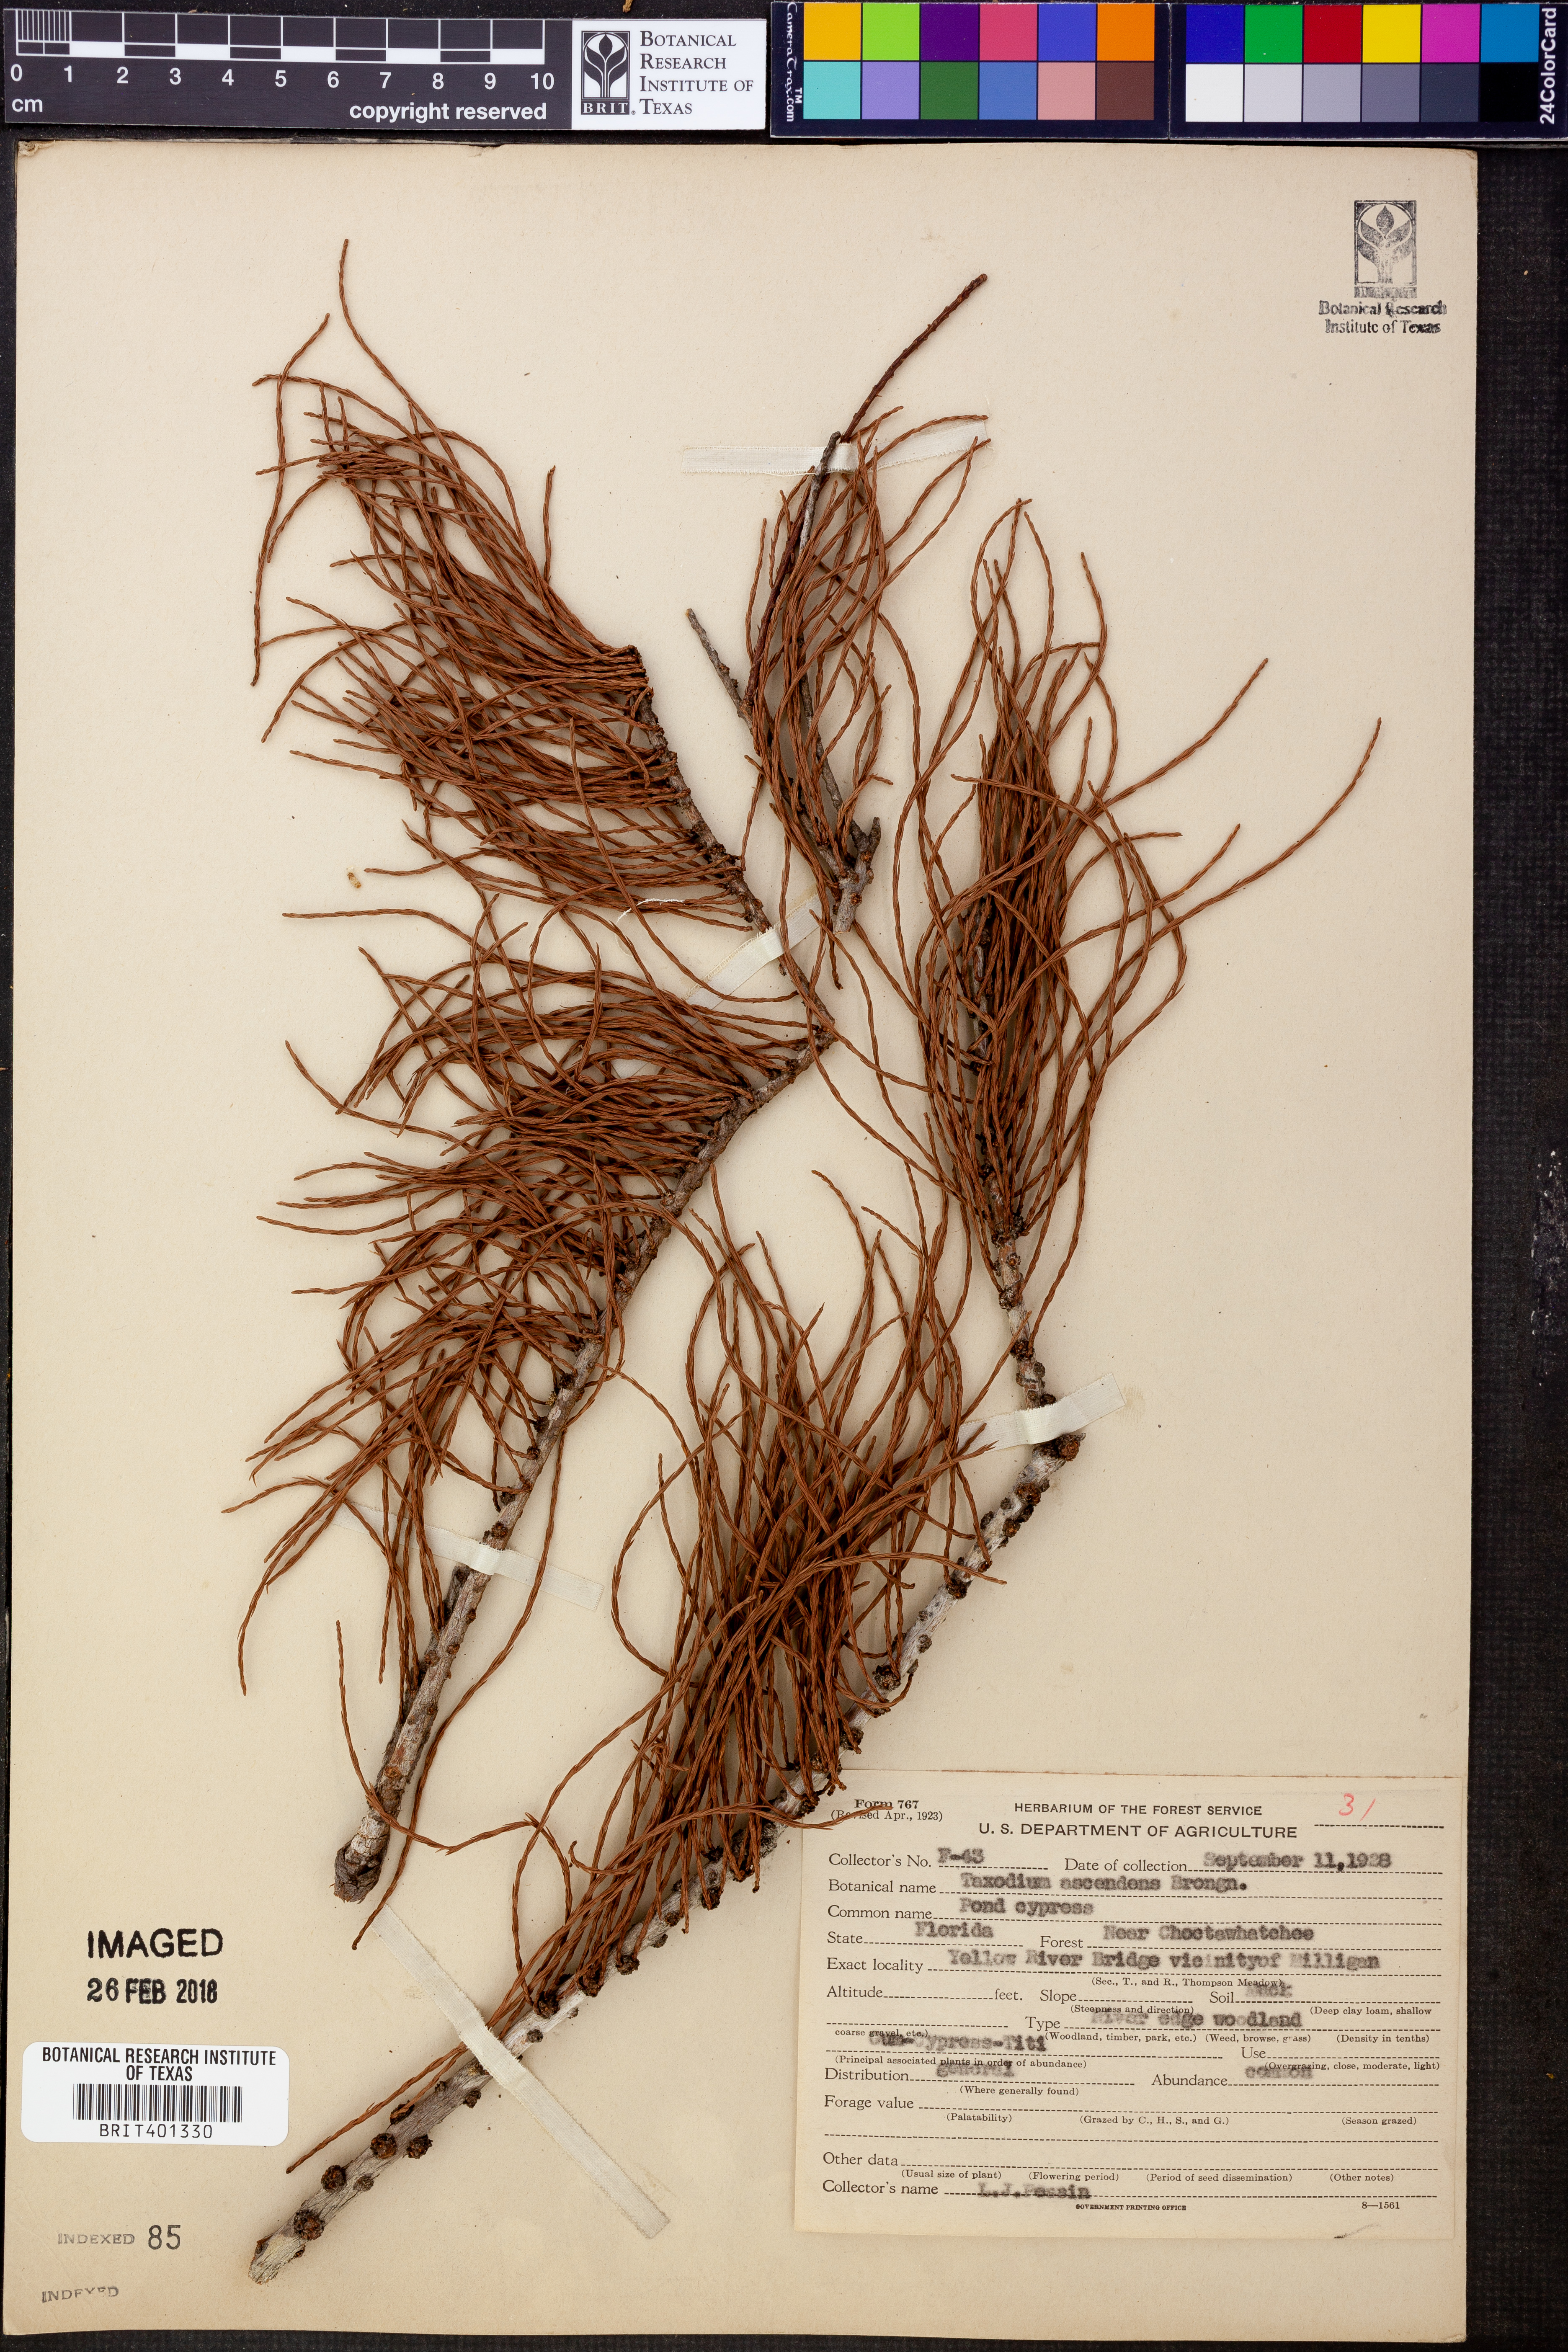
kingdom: Plantae
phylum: Tracheophyta
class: Pinopsida
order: Pinales
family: Cupressaceae
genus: Taxodium
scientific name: Taxodium distichum
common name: Bald cypress
